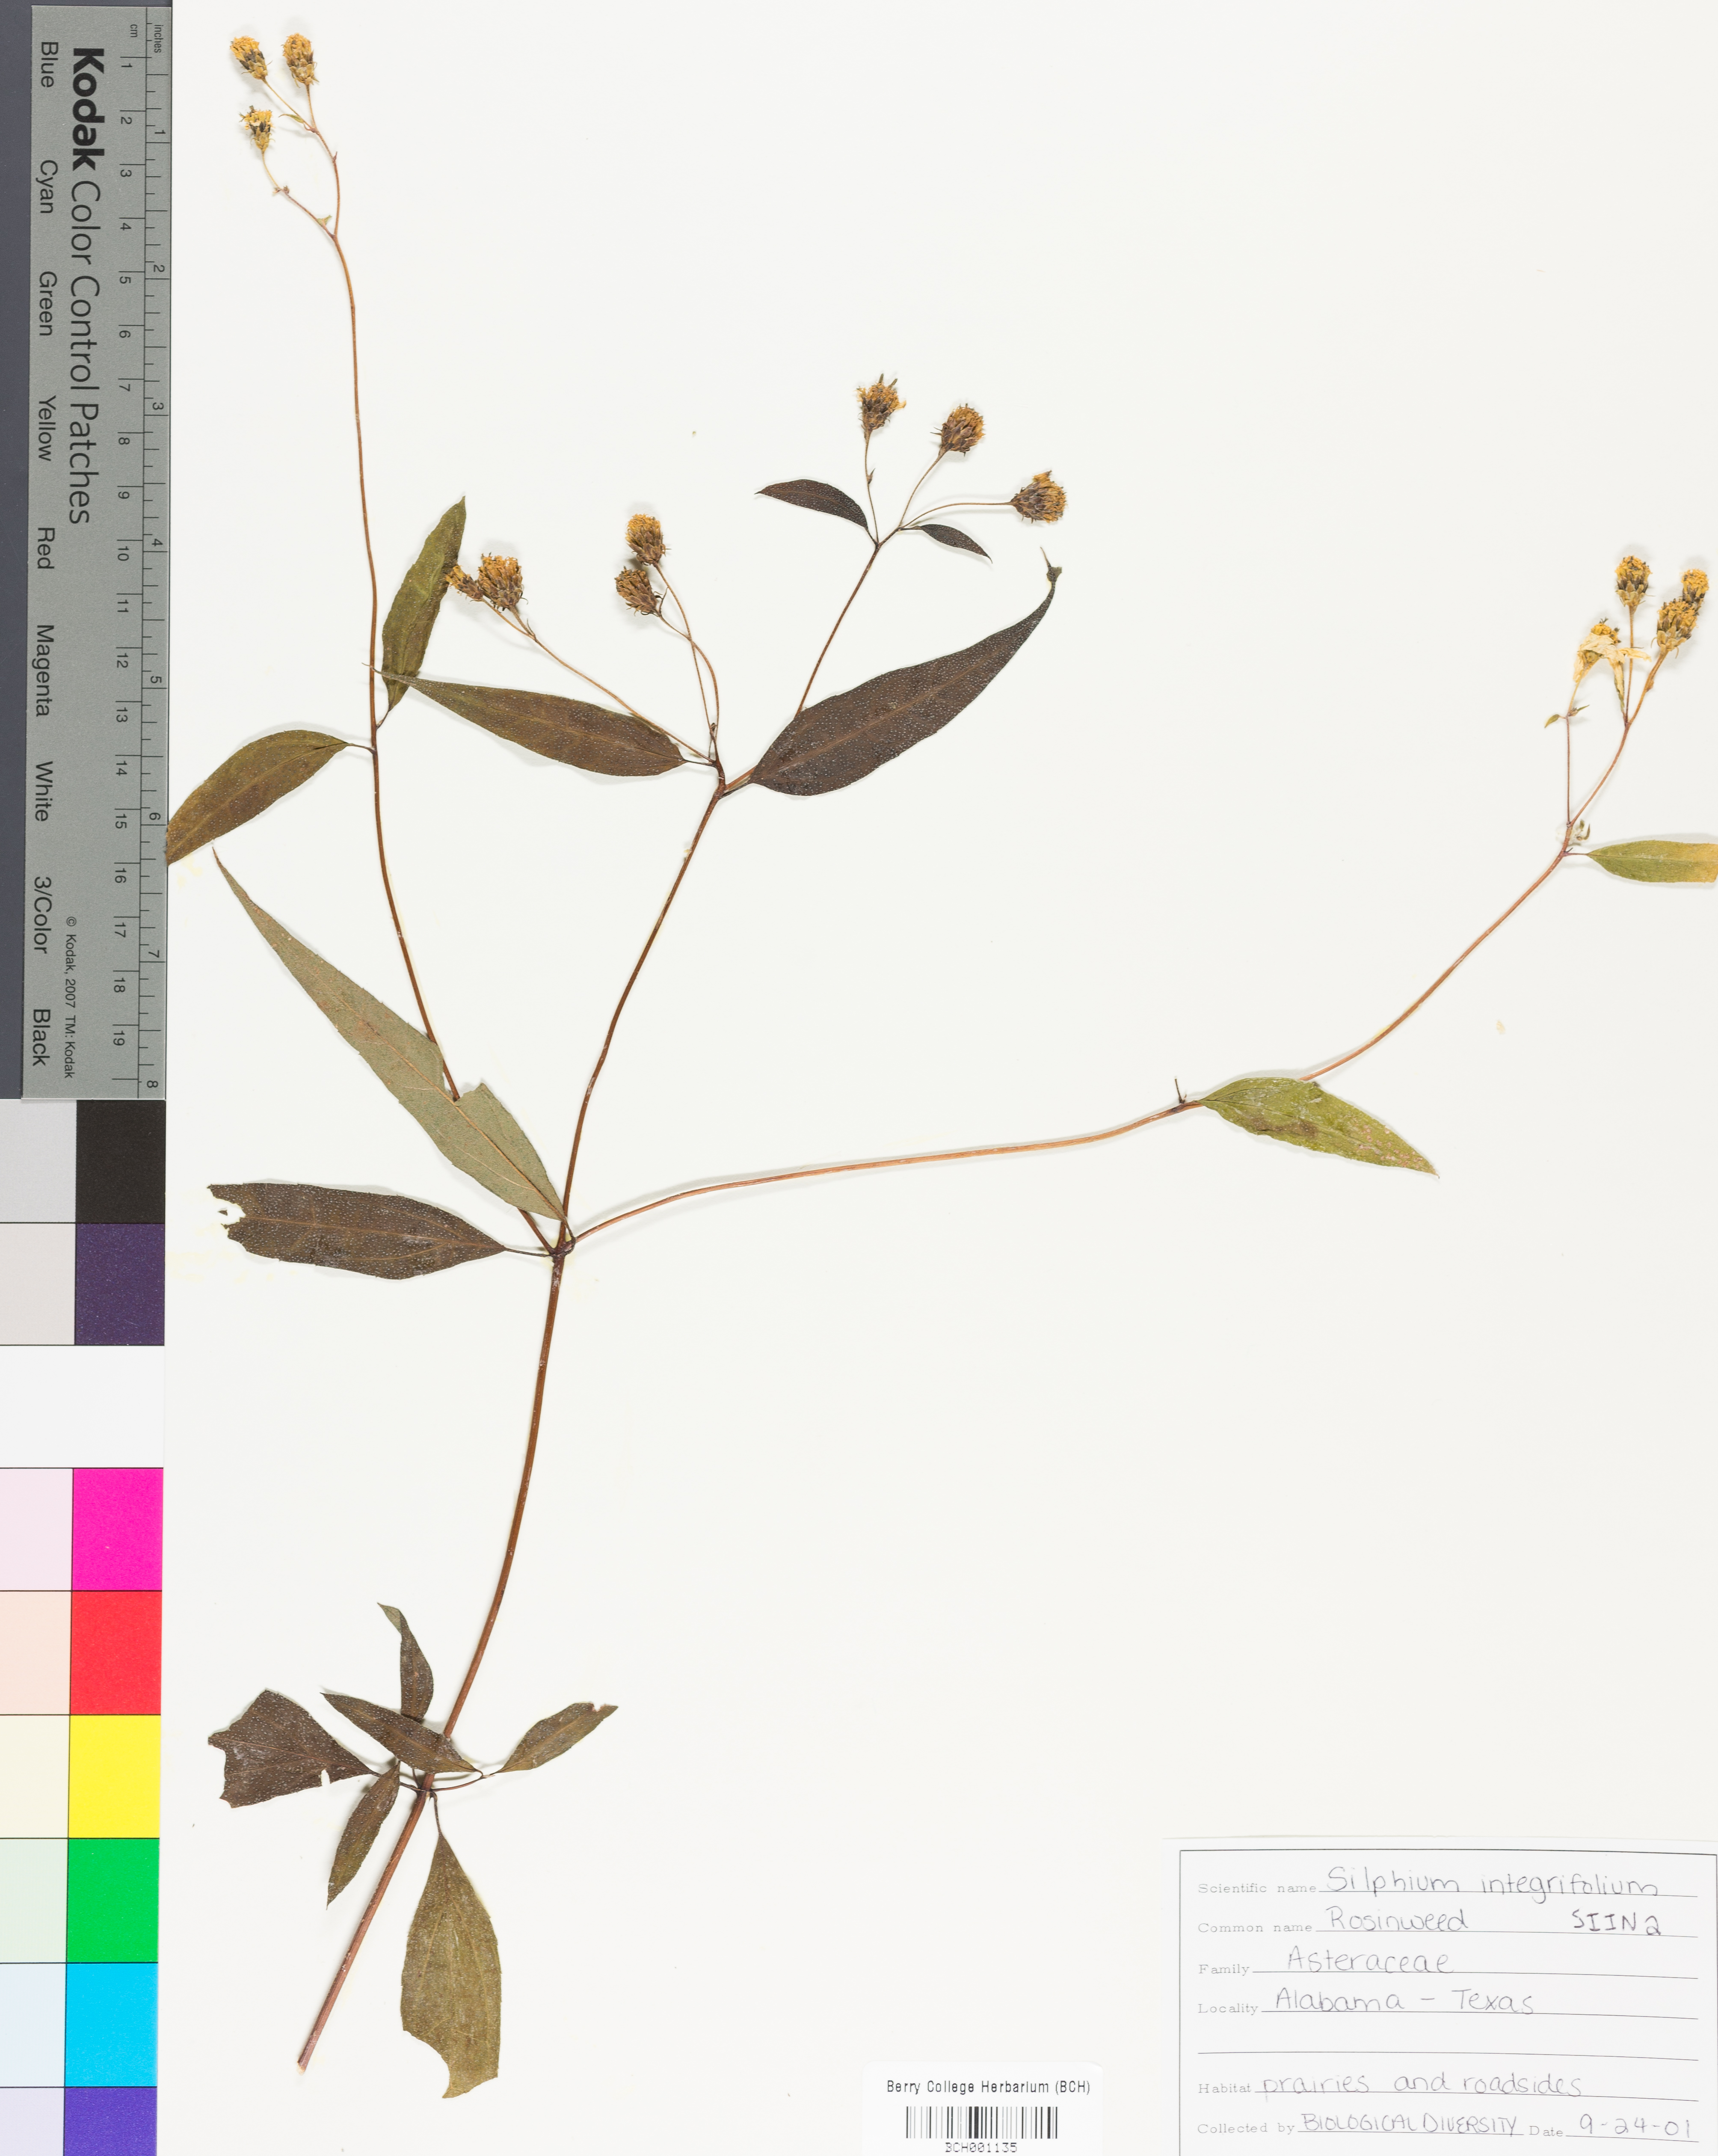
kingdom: Plantae
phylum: Tracheophyta
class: Magnoliopsida
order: Asterales
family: Asteraceae
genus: Silphium
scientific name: Silphium integrifolium
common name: Whole-leaf rosinweed
